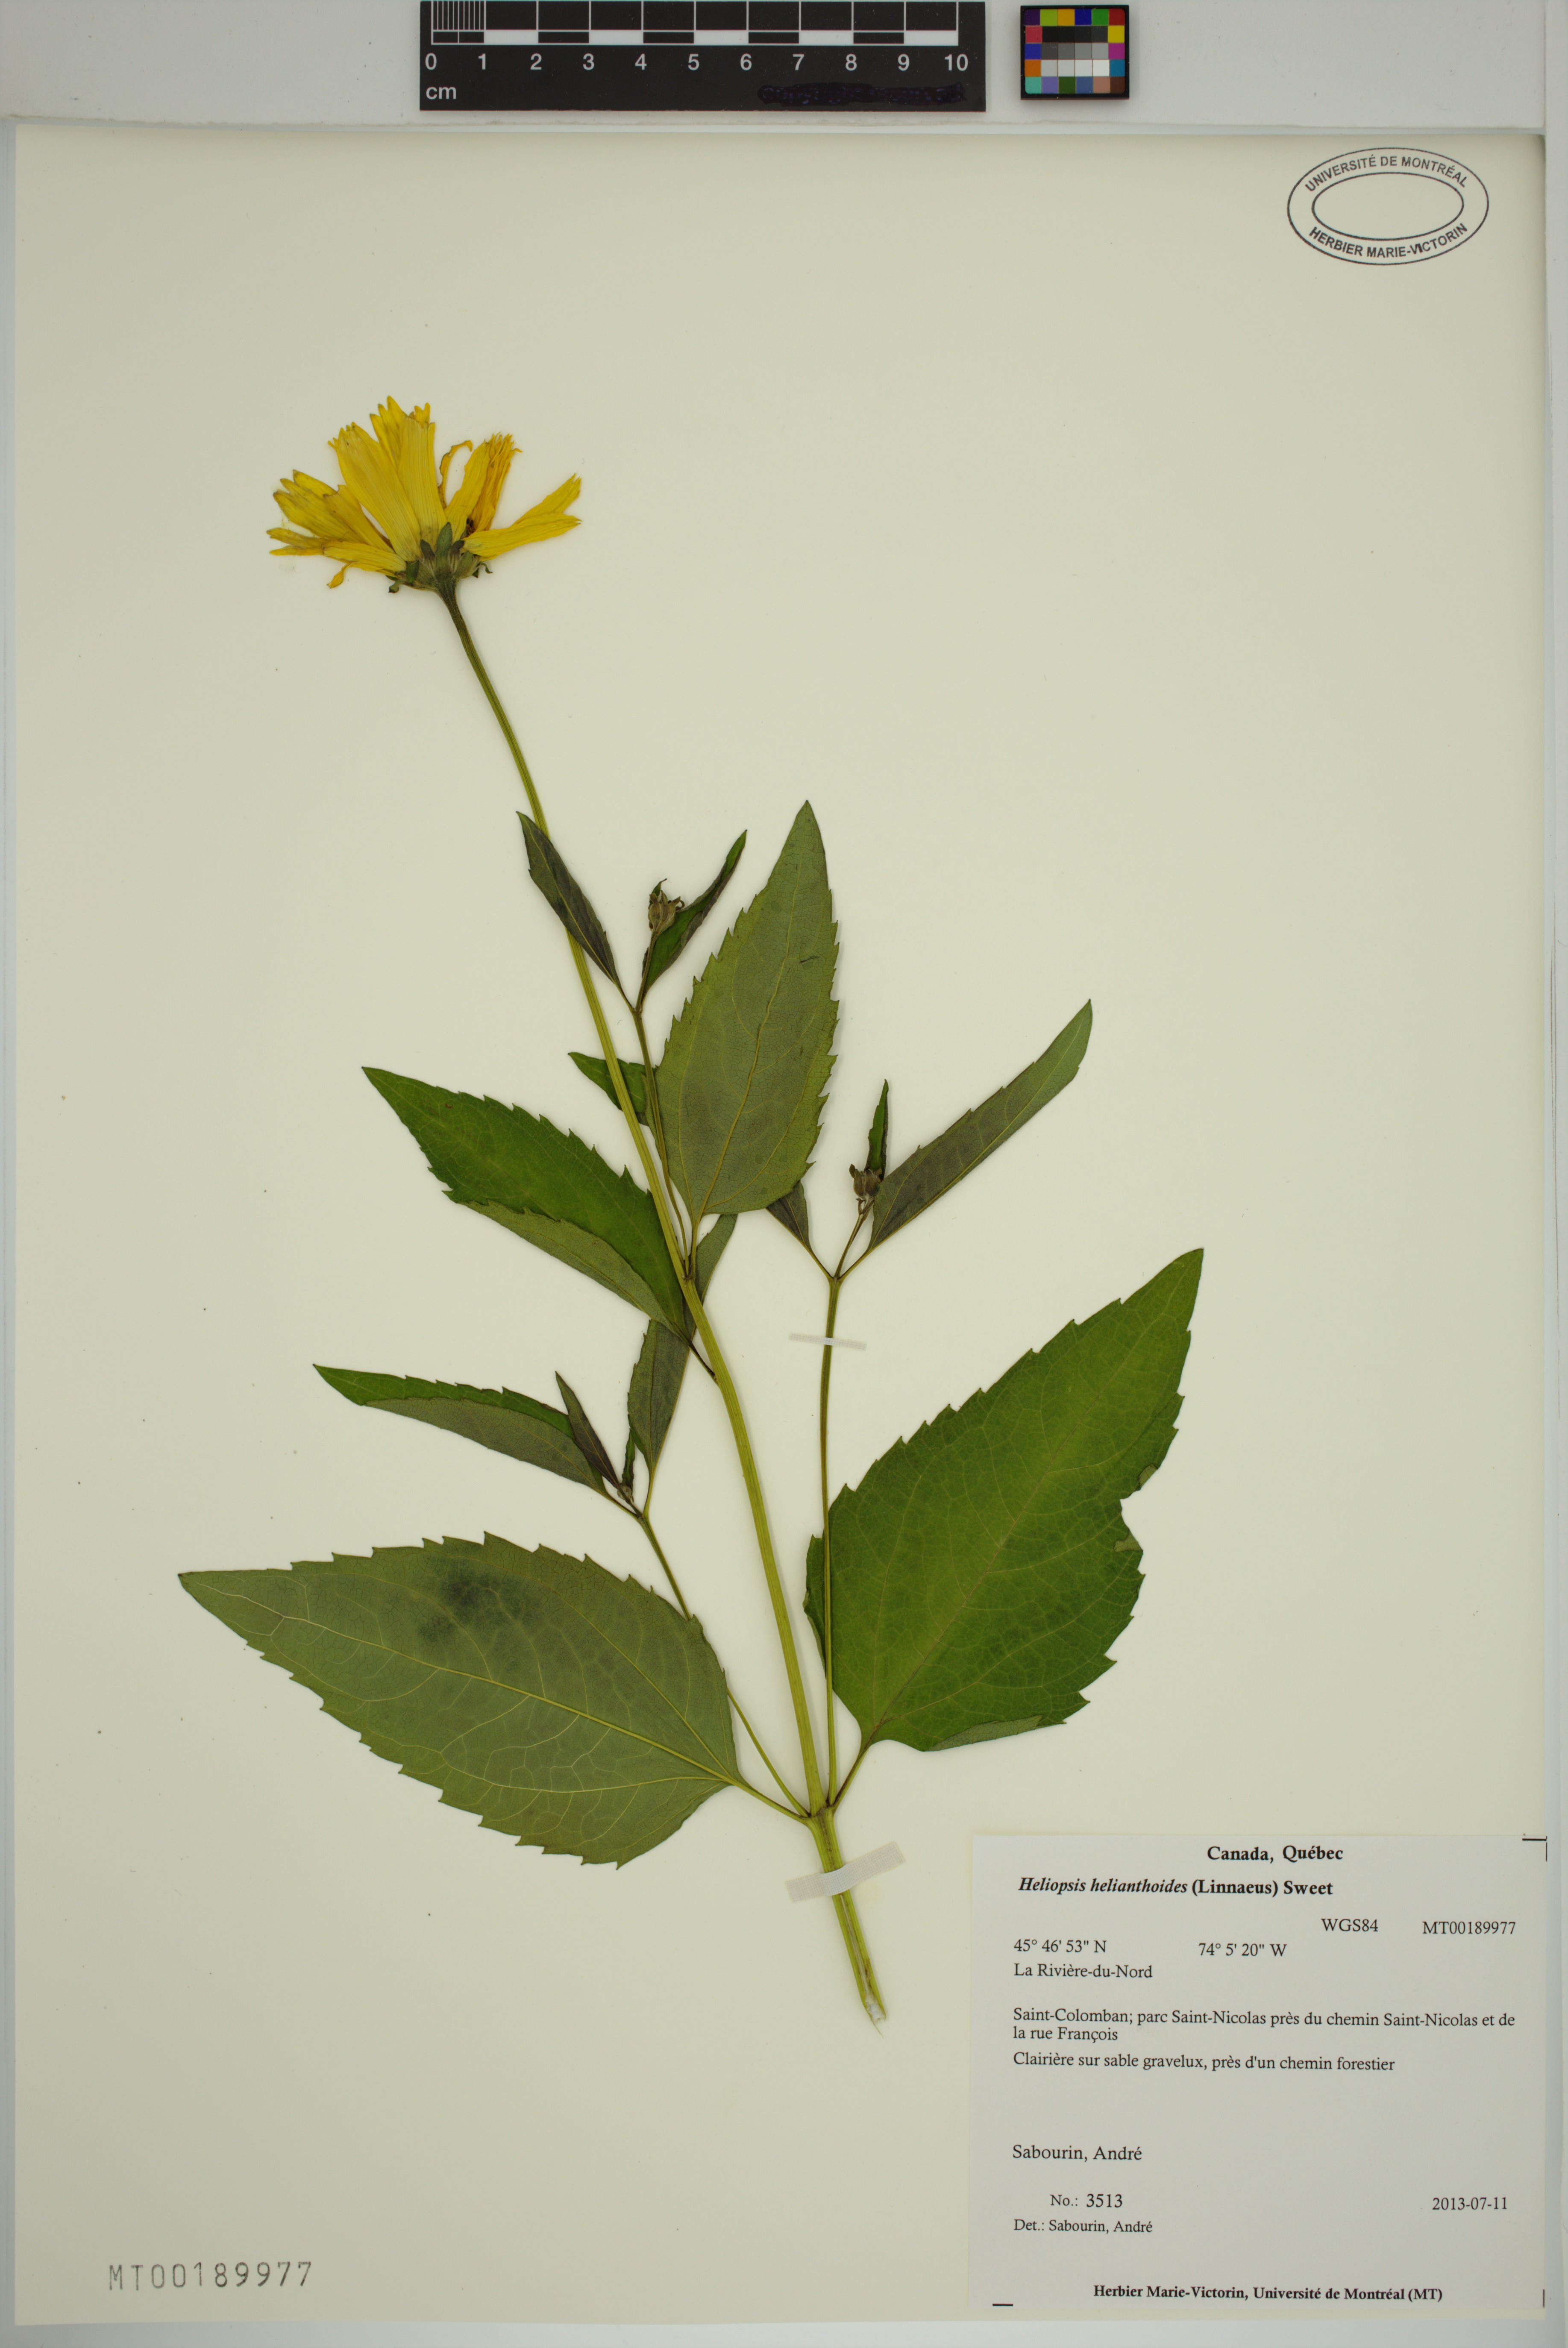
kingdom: Plantae
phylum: Tracheophyta
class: Magnoliopsida
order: Asterales
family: Asteraceae
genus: Heliopsis
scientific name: Heliopsis helianthoides
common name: False sunflower
